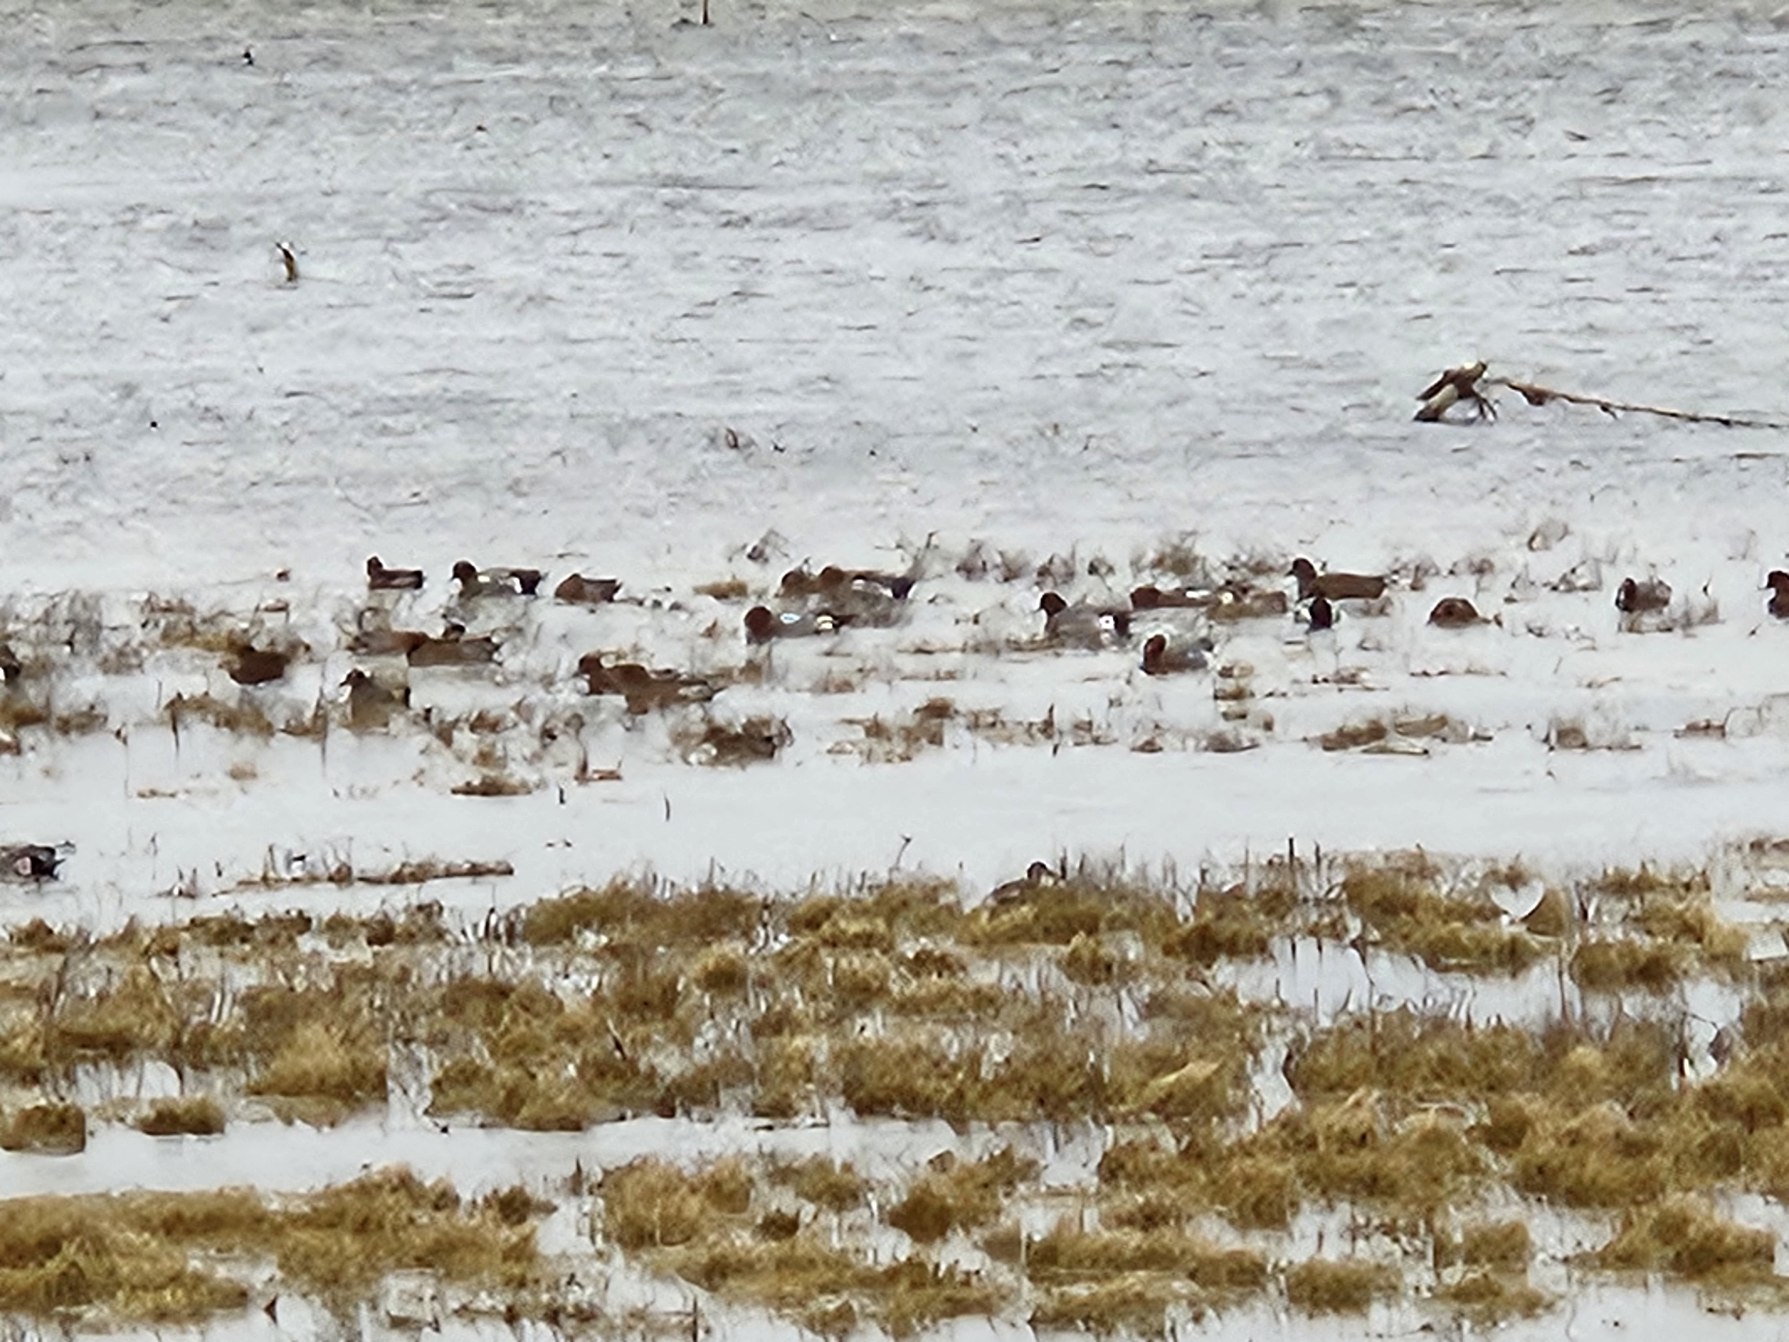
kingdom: Animalia
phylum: Chordata
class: Aves
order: Anseriformes
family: Anatidae
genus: Mareca
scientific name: Mareca penelope
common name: Pibeand
